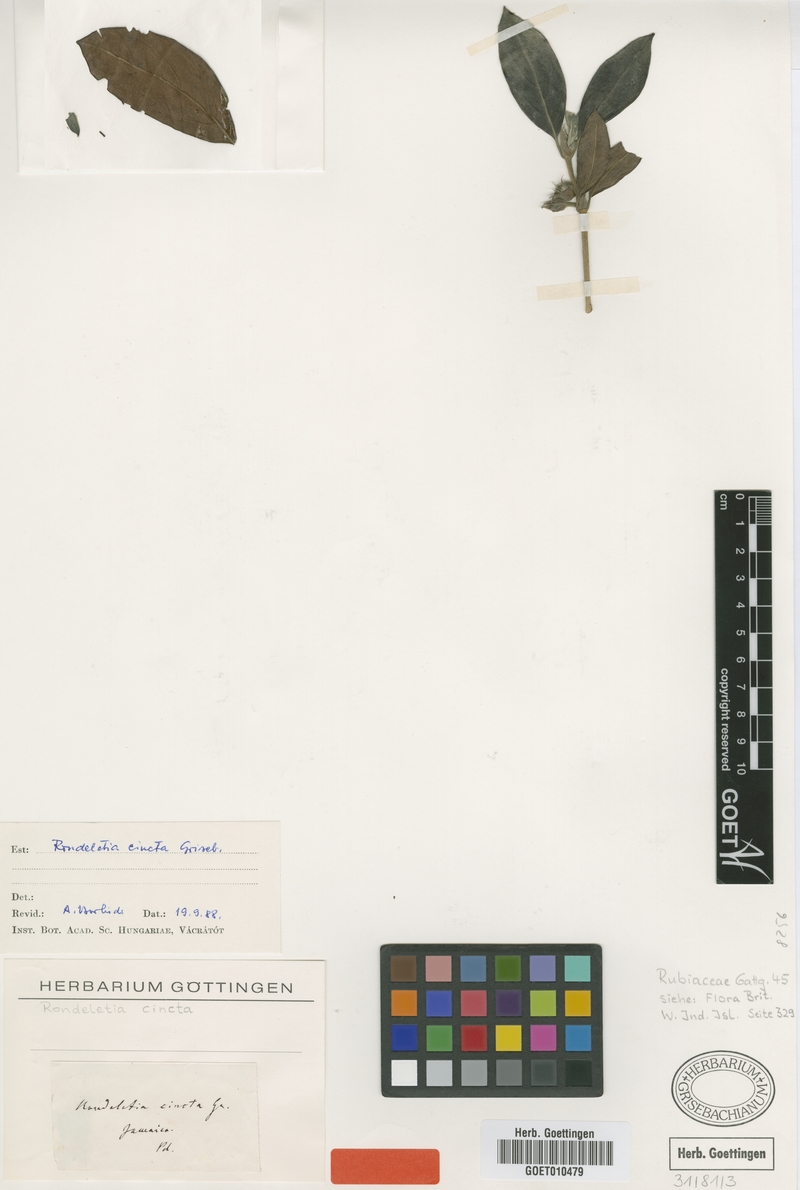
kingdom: Plantae
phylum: Tracheophyta
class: Magnoliopsida
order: Gentianales
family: Rubiaceae
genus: Rondeletia
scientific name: Rondeletia cincta
